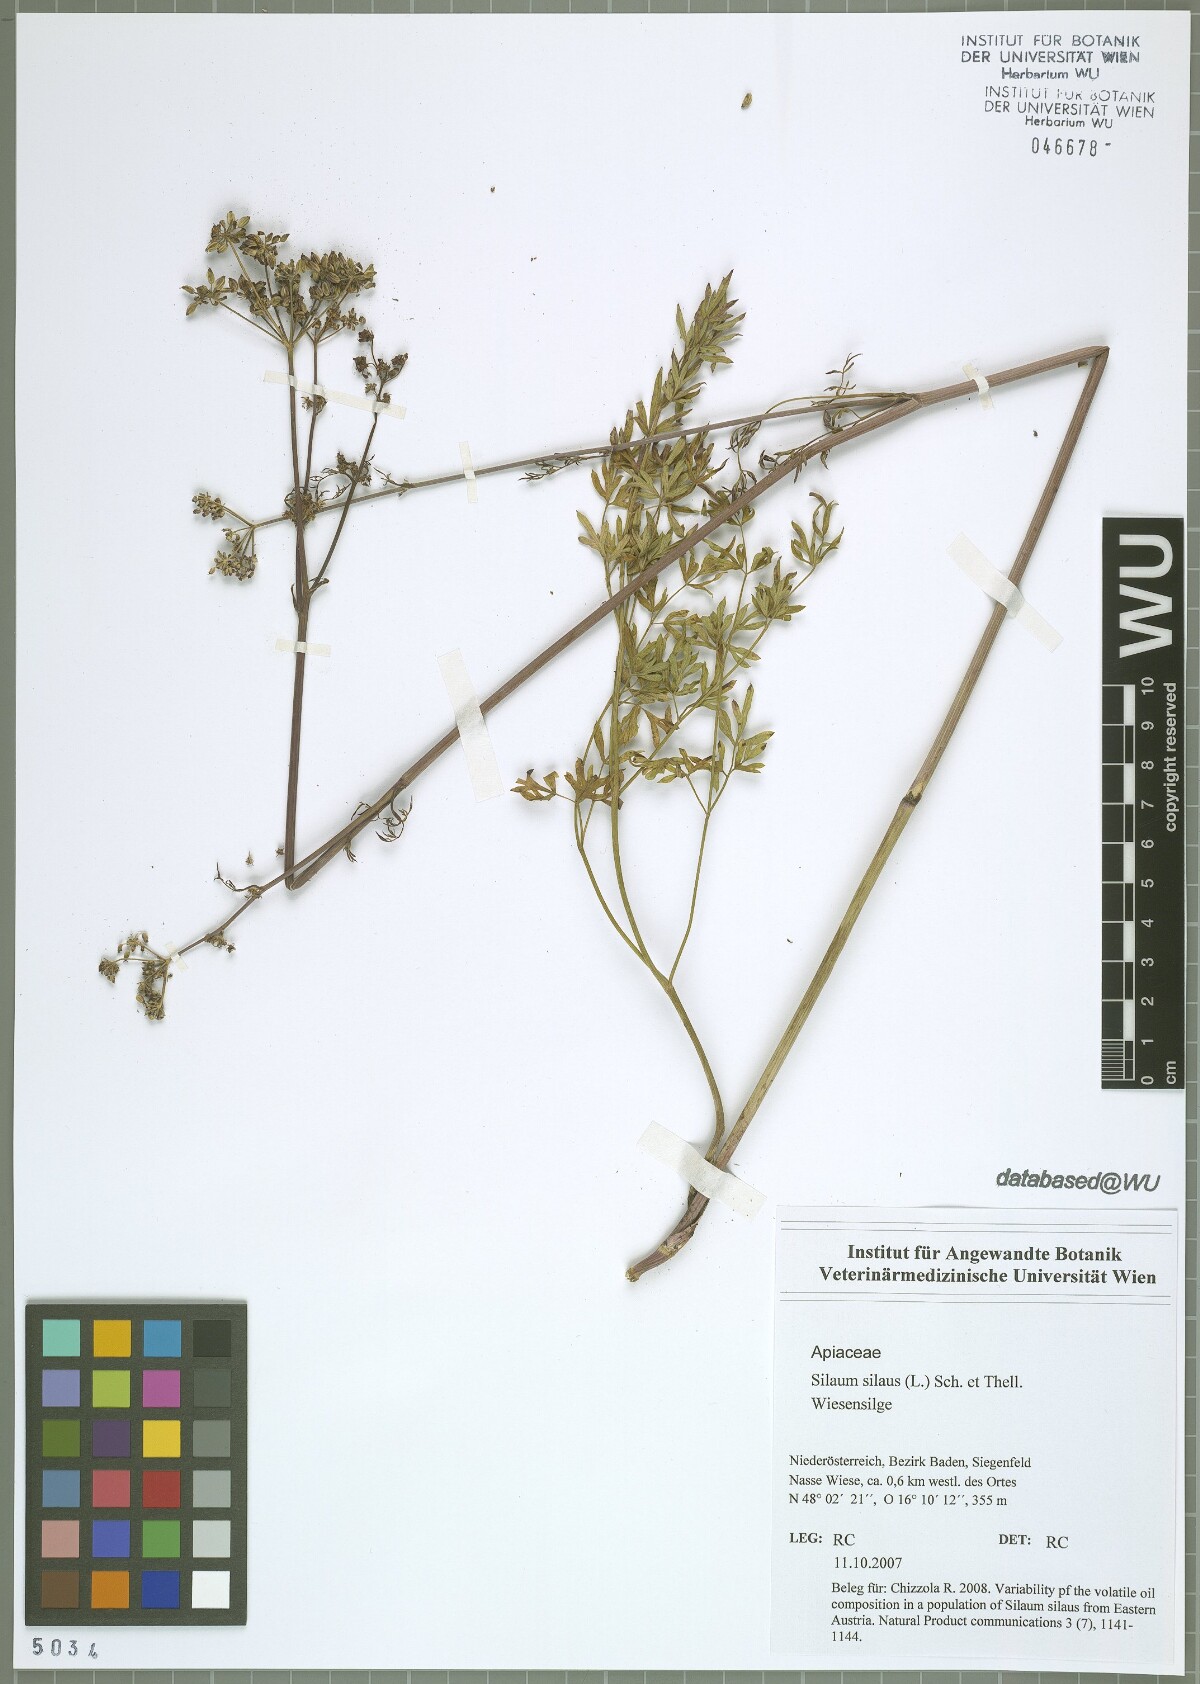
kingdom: Plantae
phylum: Tracheophyta
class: Magnoliopsida
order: Apiales
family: Apiaceae
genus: Silaum
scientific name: Silaum silaus
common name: Pepper-saxifrage
